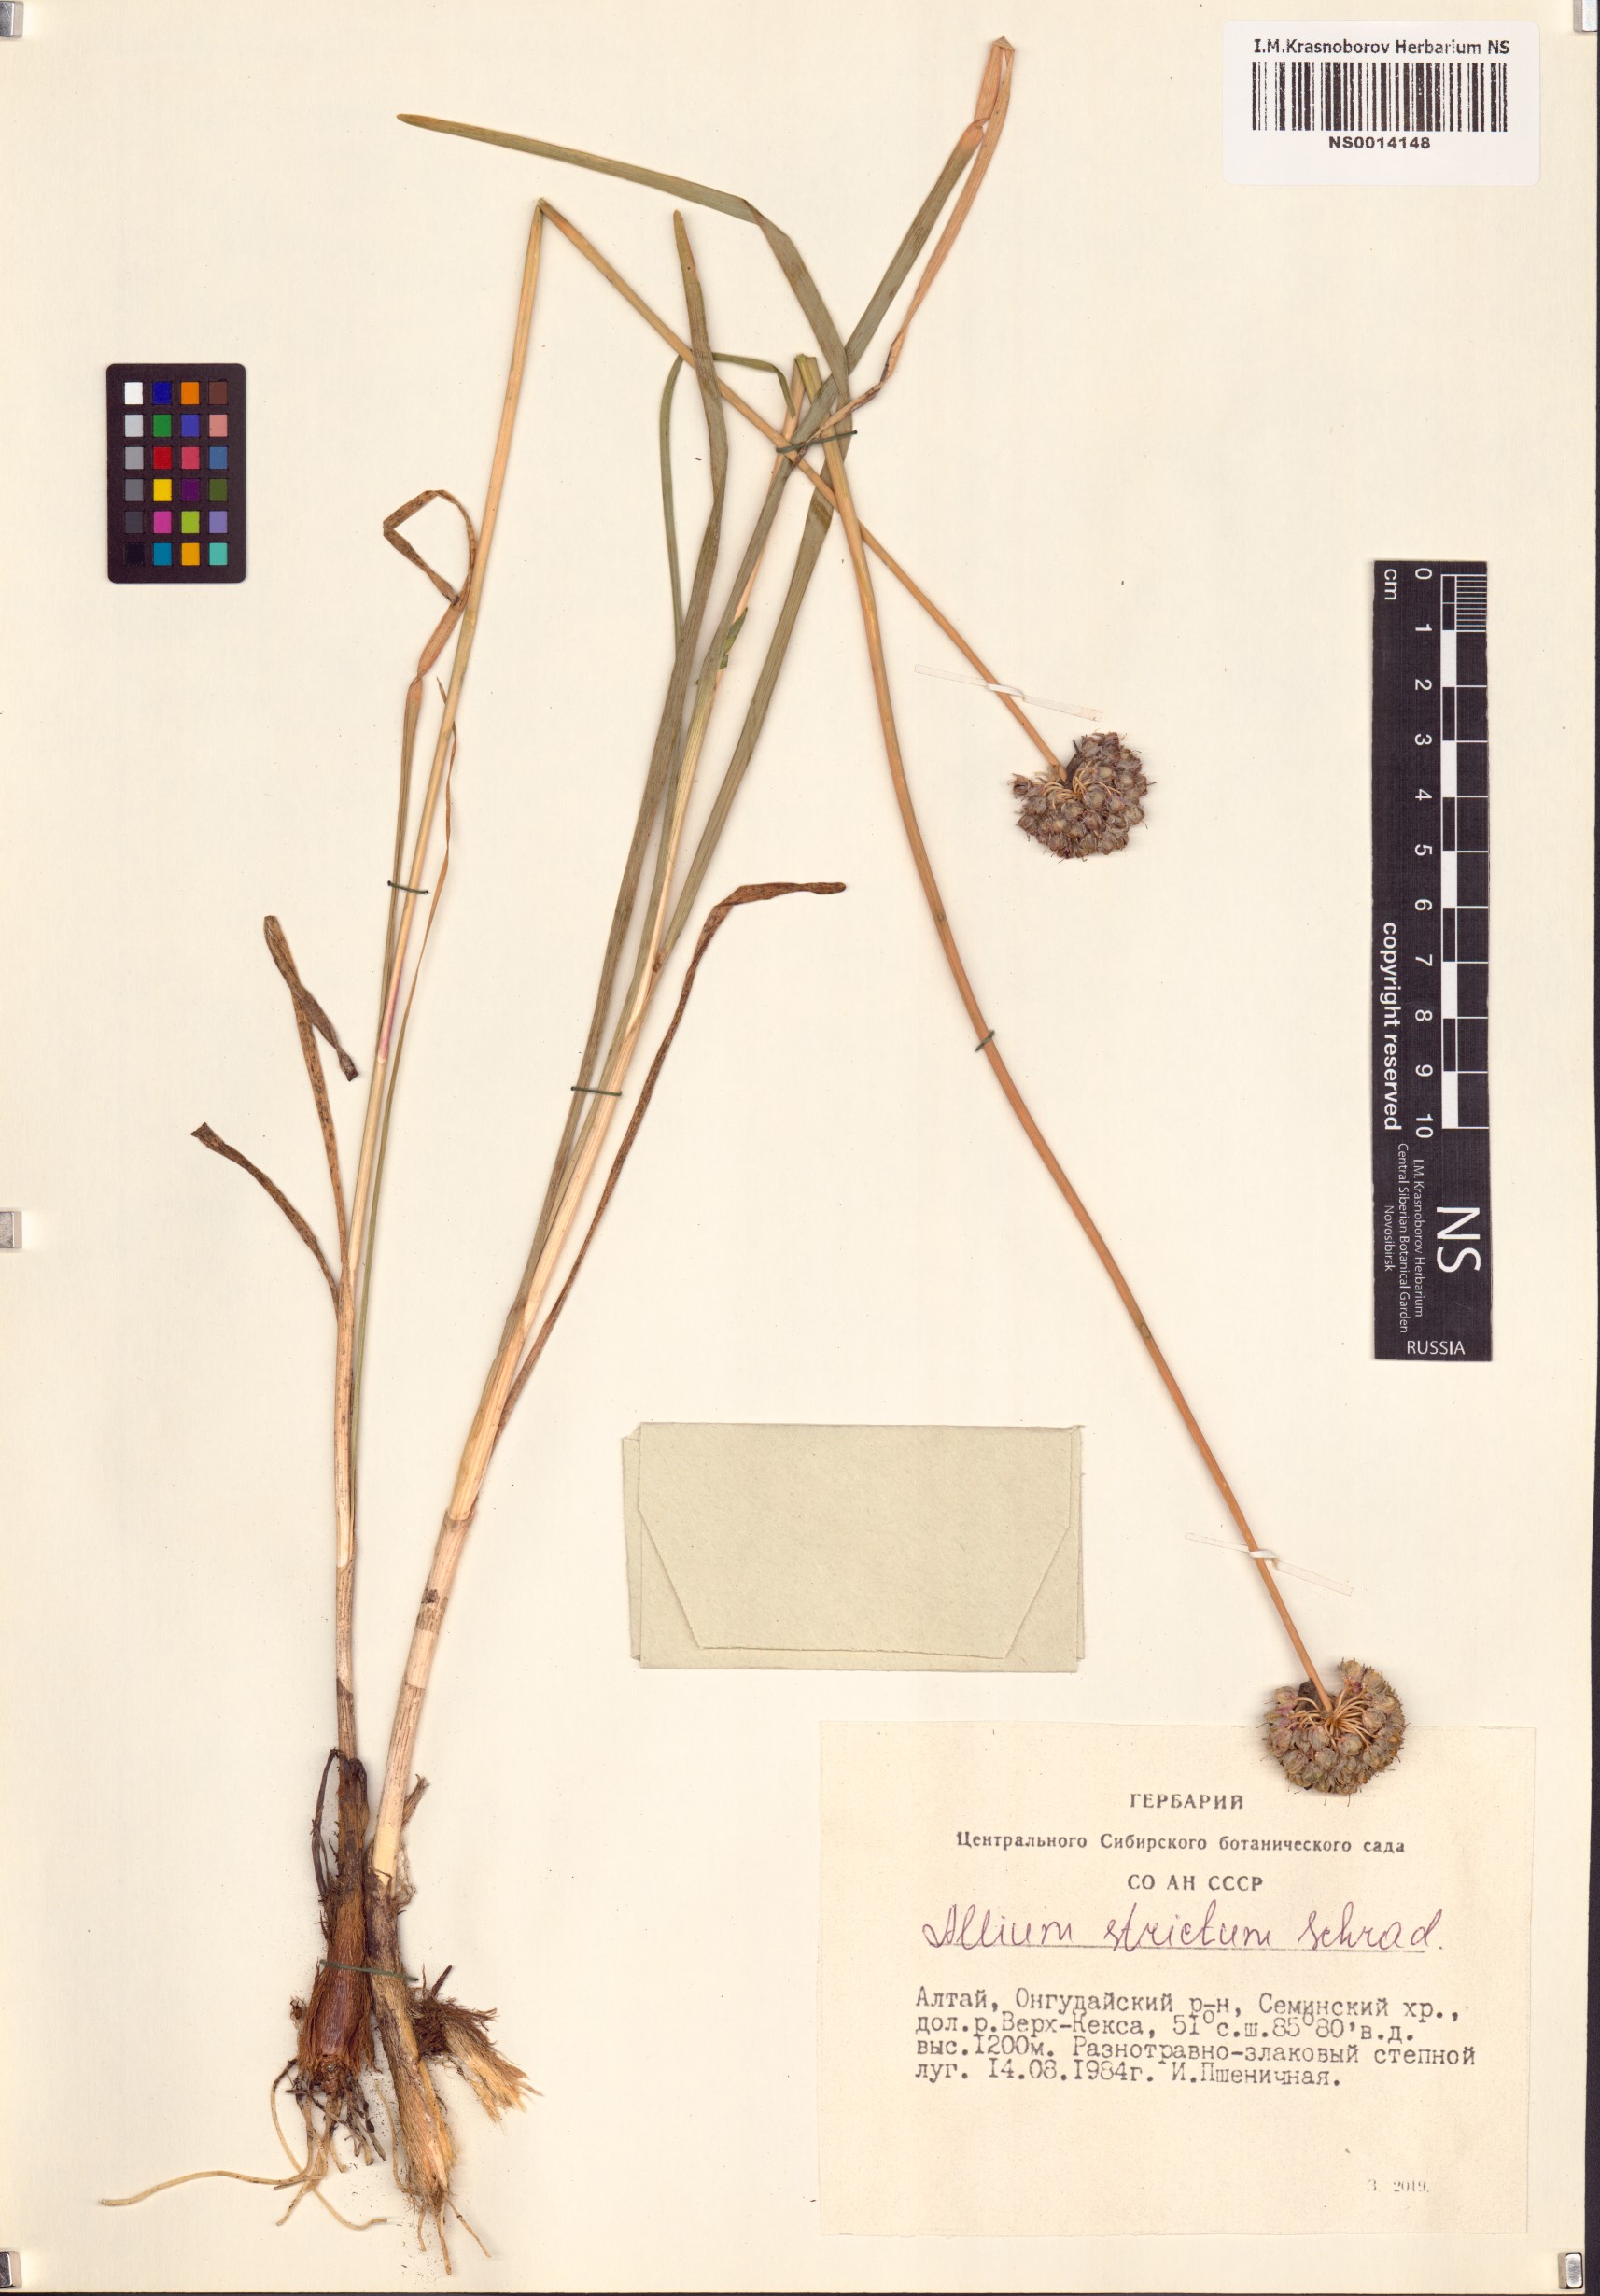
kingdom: Plantae
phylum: Tracheophyta
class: Liliopsida
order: Asparagales
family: Amaryllidaceae
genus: Allium
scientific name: Allium strictum
